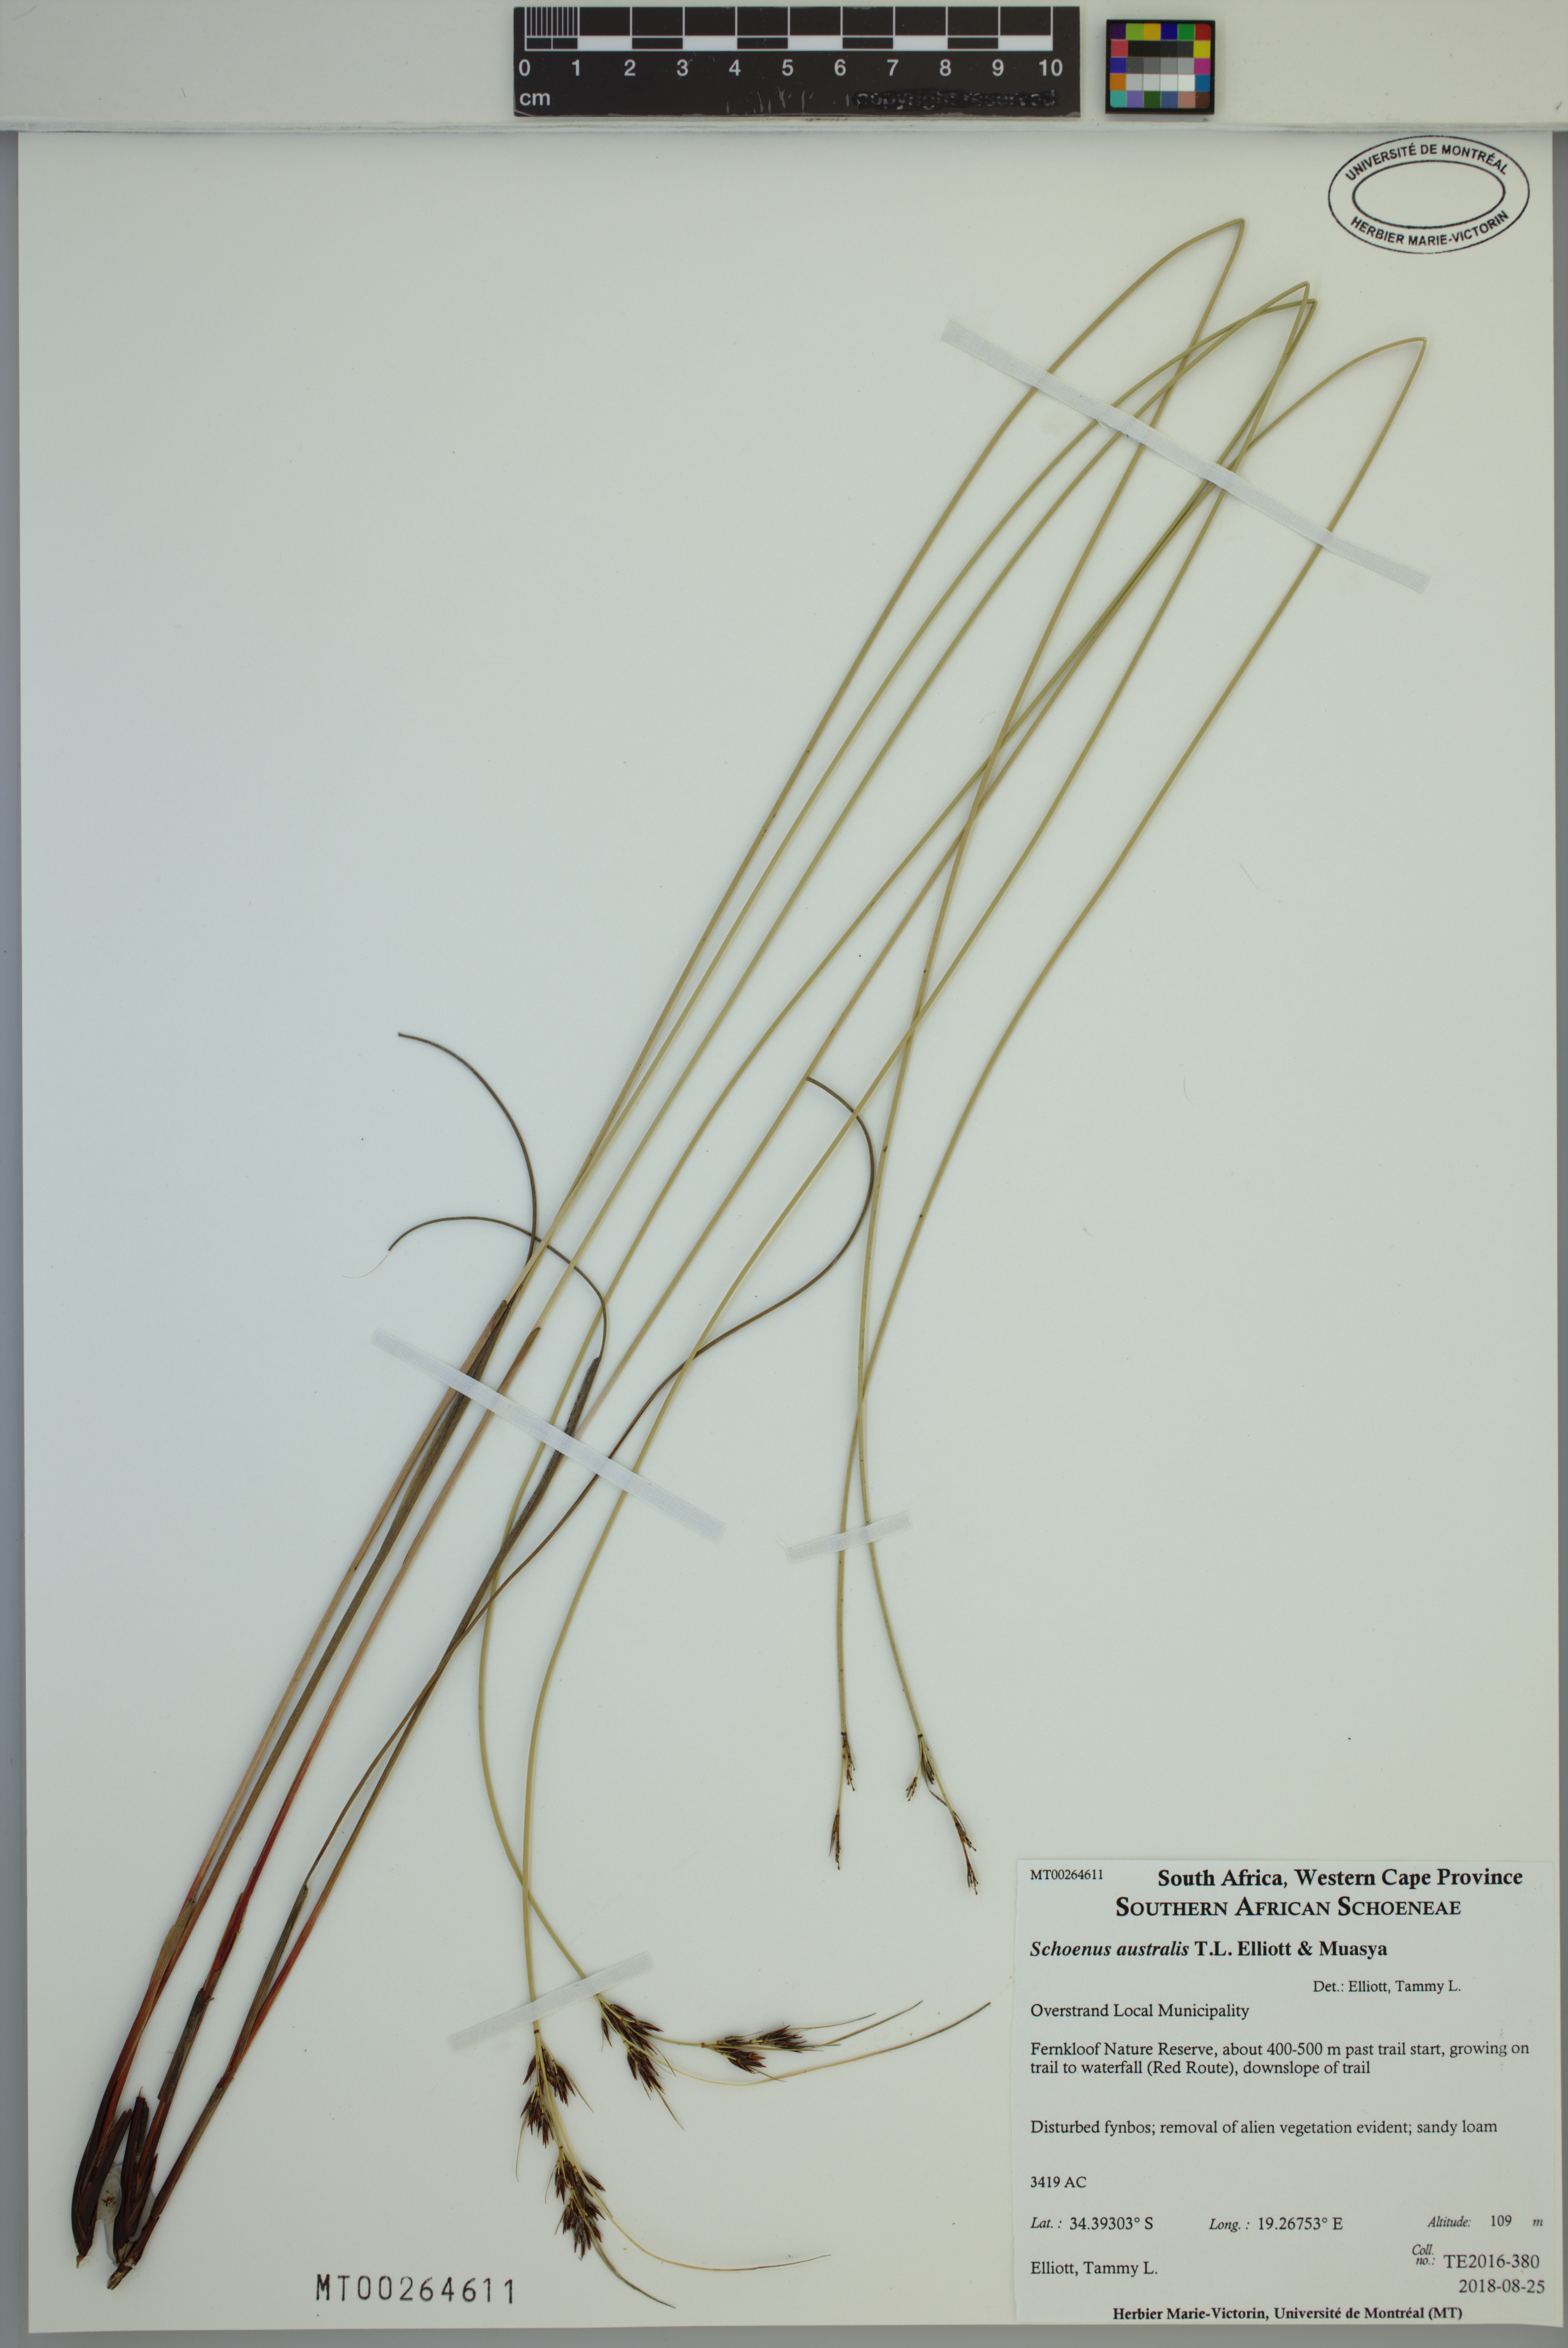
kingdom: Plantae
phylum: Tracheophyta
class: Liliopsida
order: Poales
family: Cyperaceae
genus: Schoenus
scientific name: Schoenus australis
